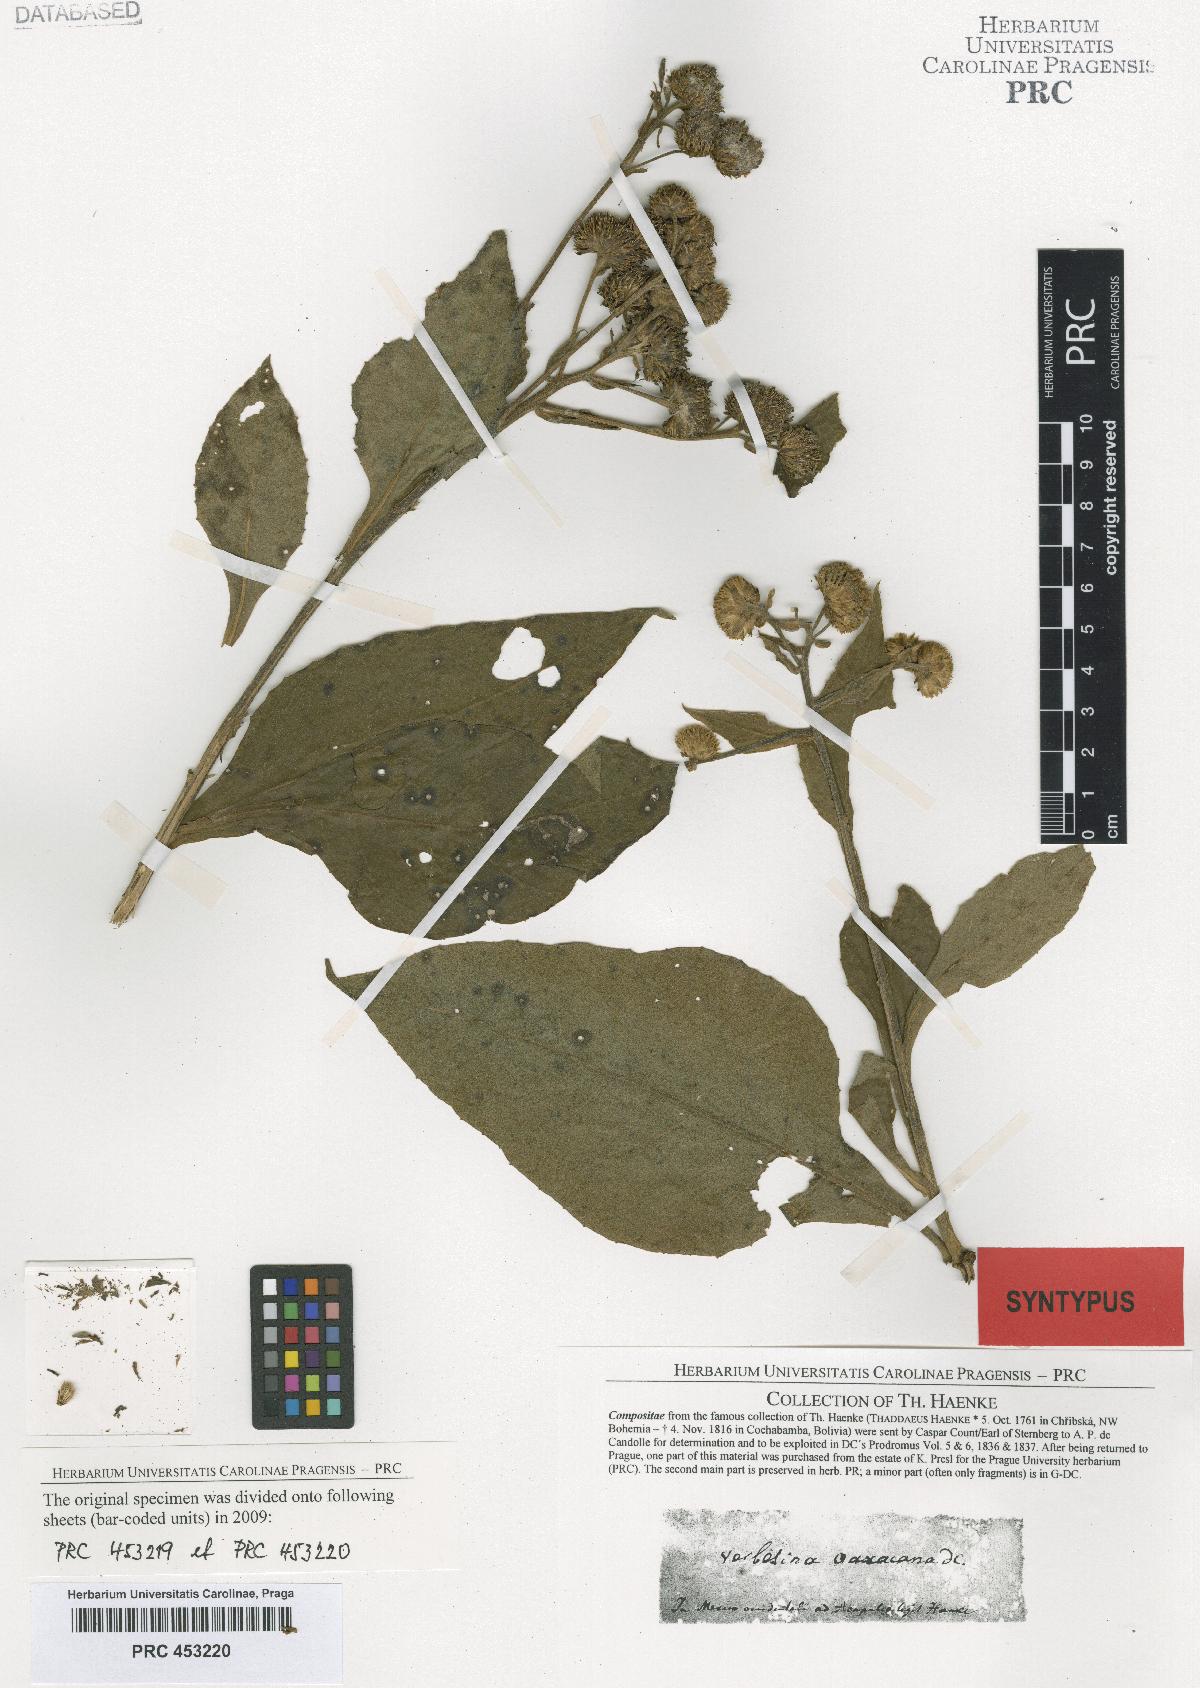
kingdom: Plantae
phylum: Tracheophyta
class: Magnoliopsida
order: Asterales
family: Asteraceae
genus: Verbesina
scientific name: Verbesina mexicana
